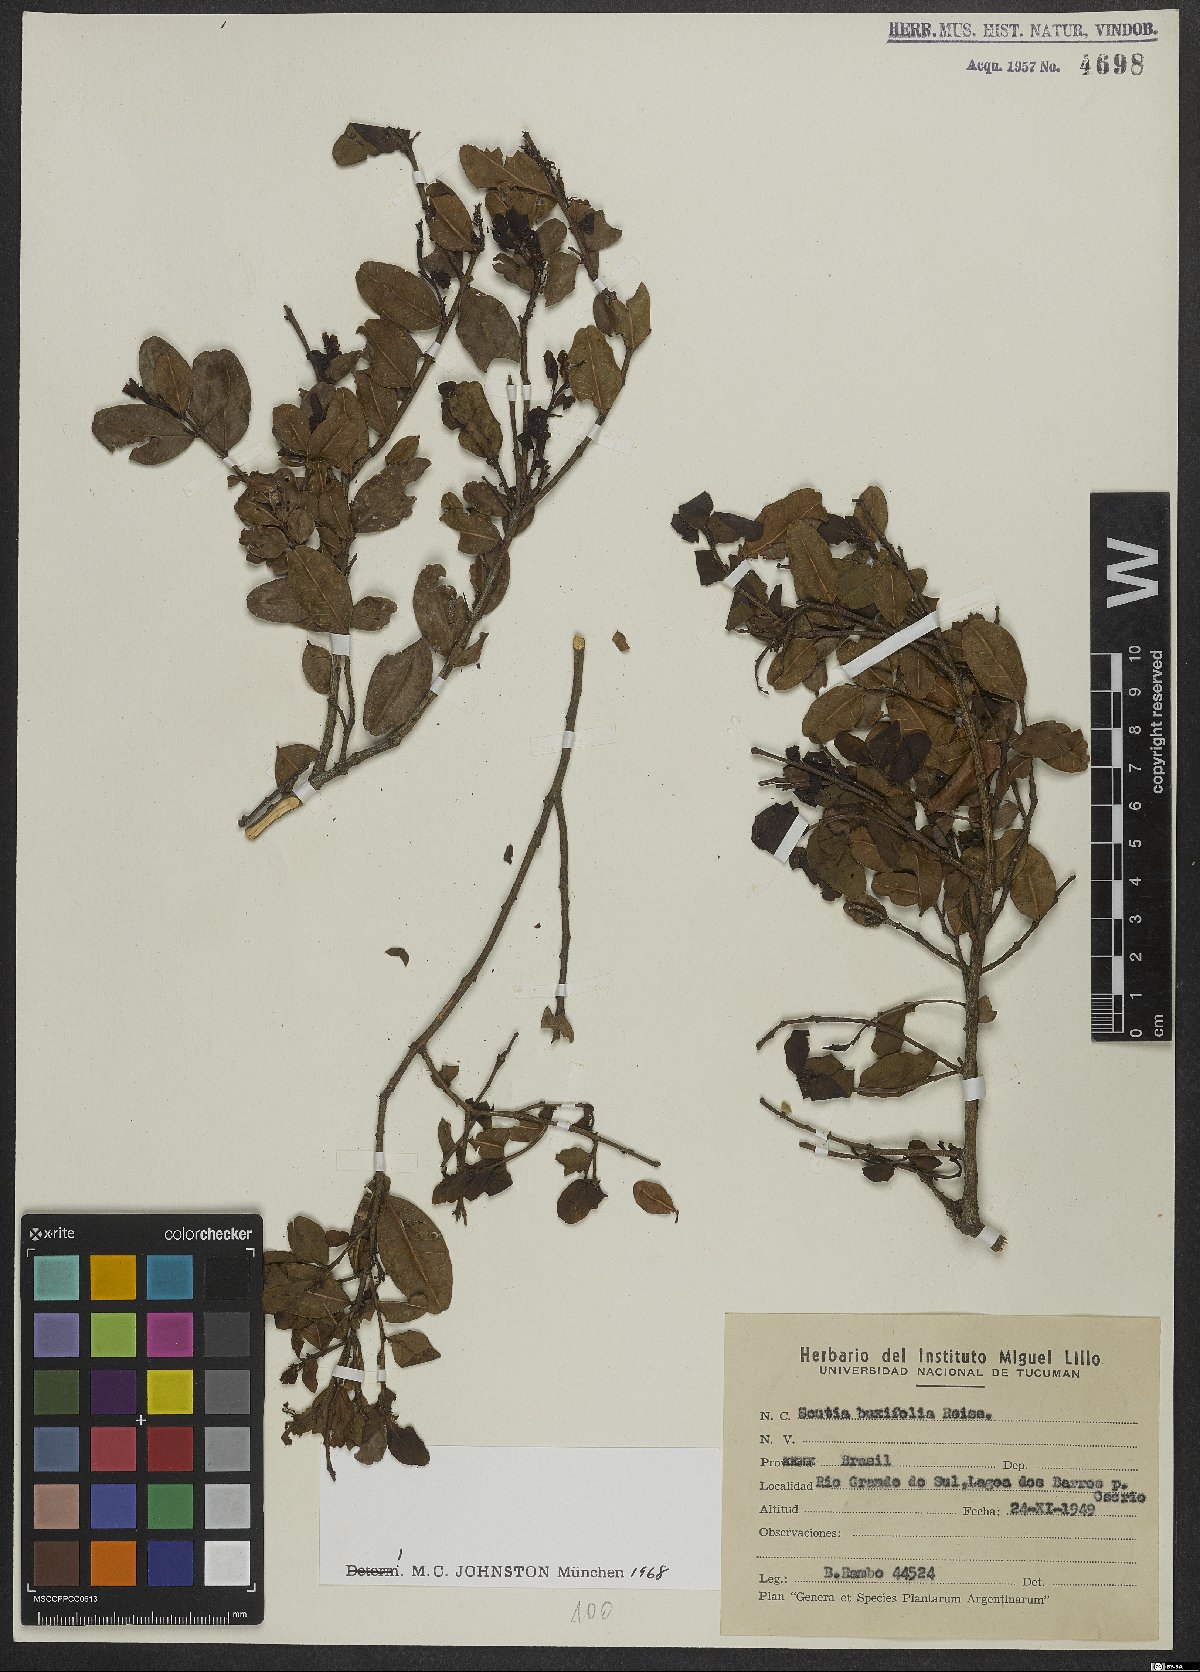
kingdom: Plantae
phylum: Tracheophyta
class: Magnoliopsida
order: Rosales
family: Rhamnaceae
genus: Scutia
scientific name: Scutia buxifolia
